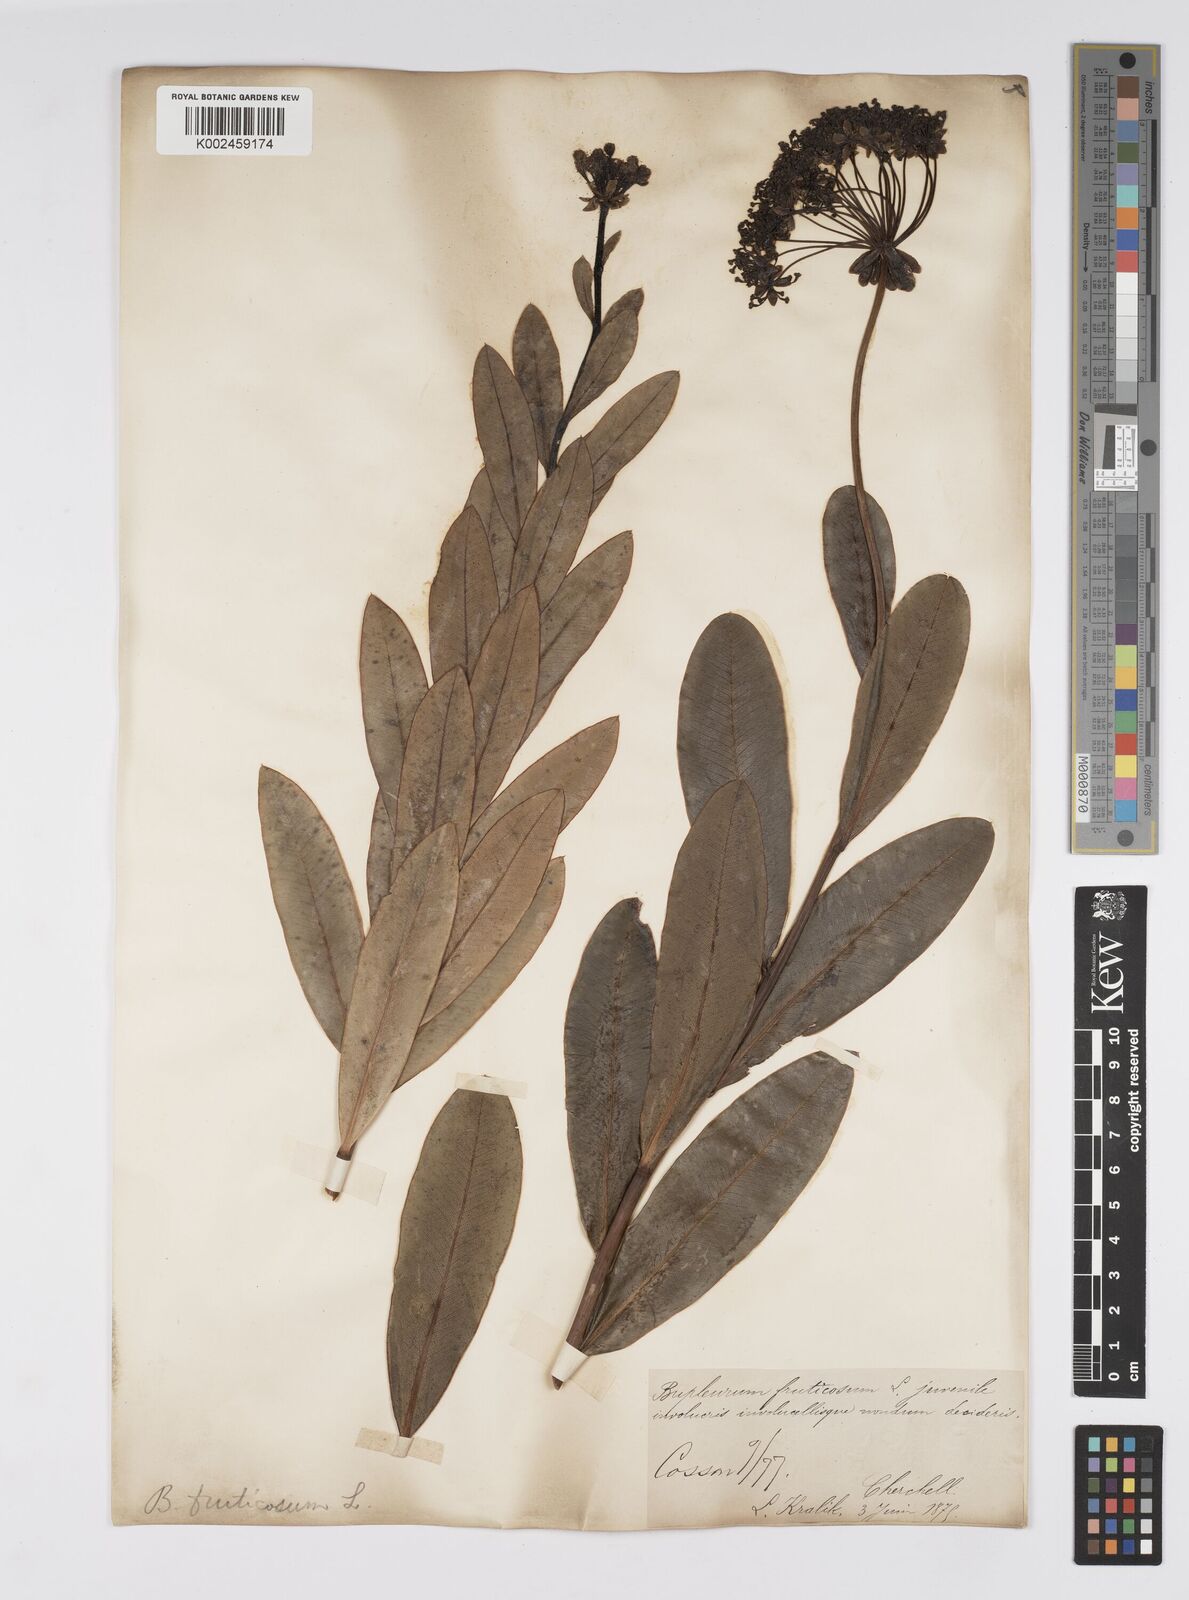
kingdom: Plantae
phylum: Tracheophyta
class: Magnoliopsida
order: Apiales
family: Apiaceae
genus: Bupleurum
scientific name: Bupleurum fruticosum
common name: Shrubby hare's-ear
